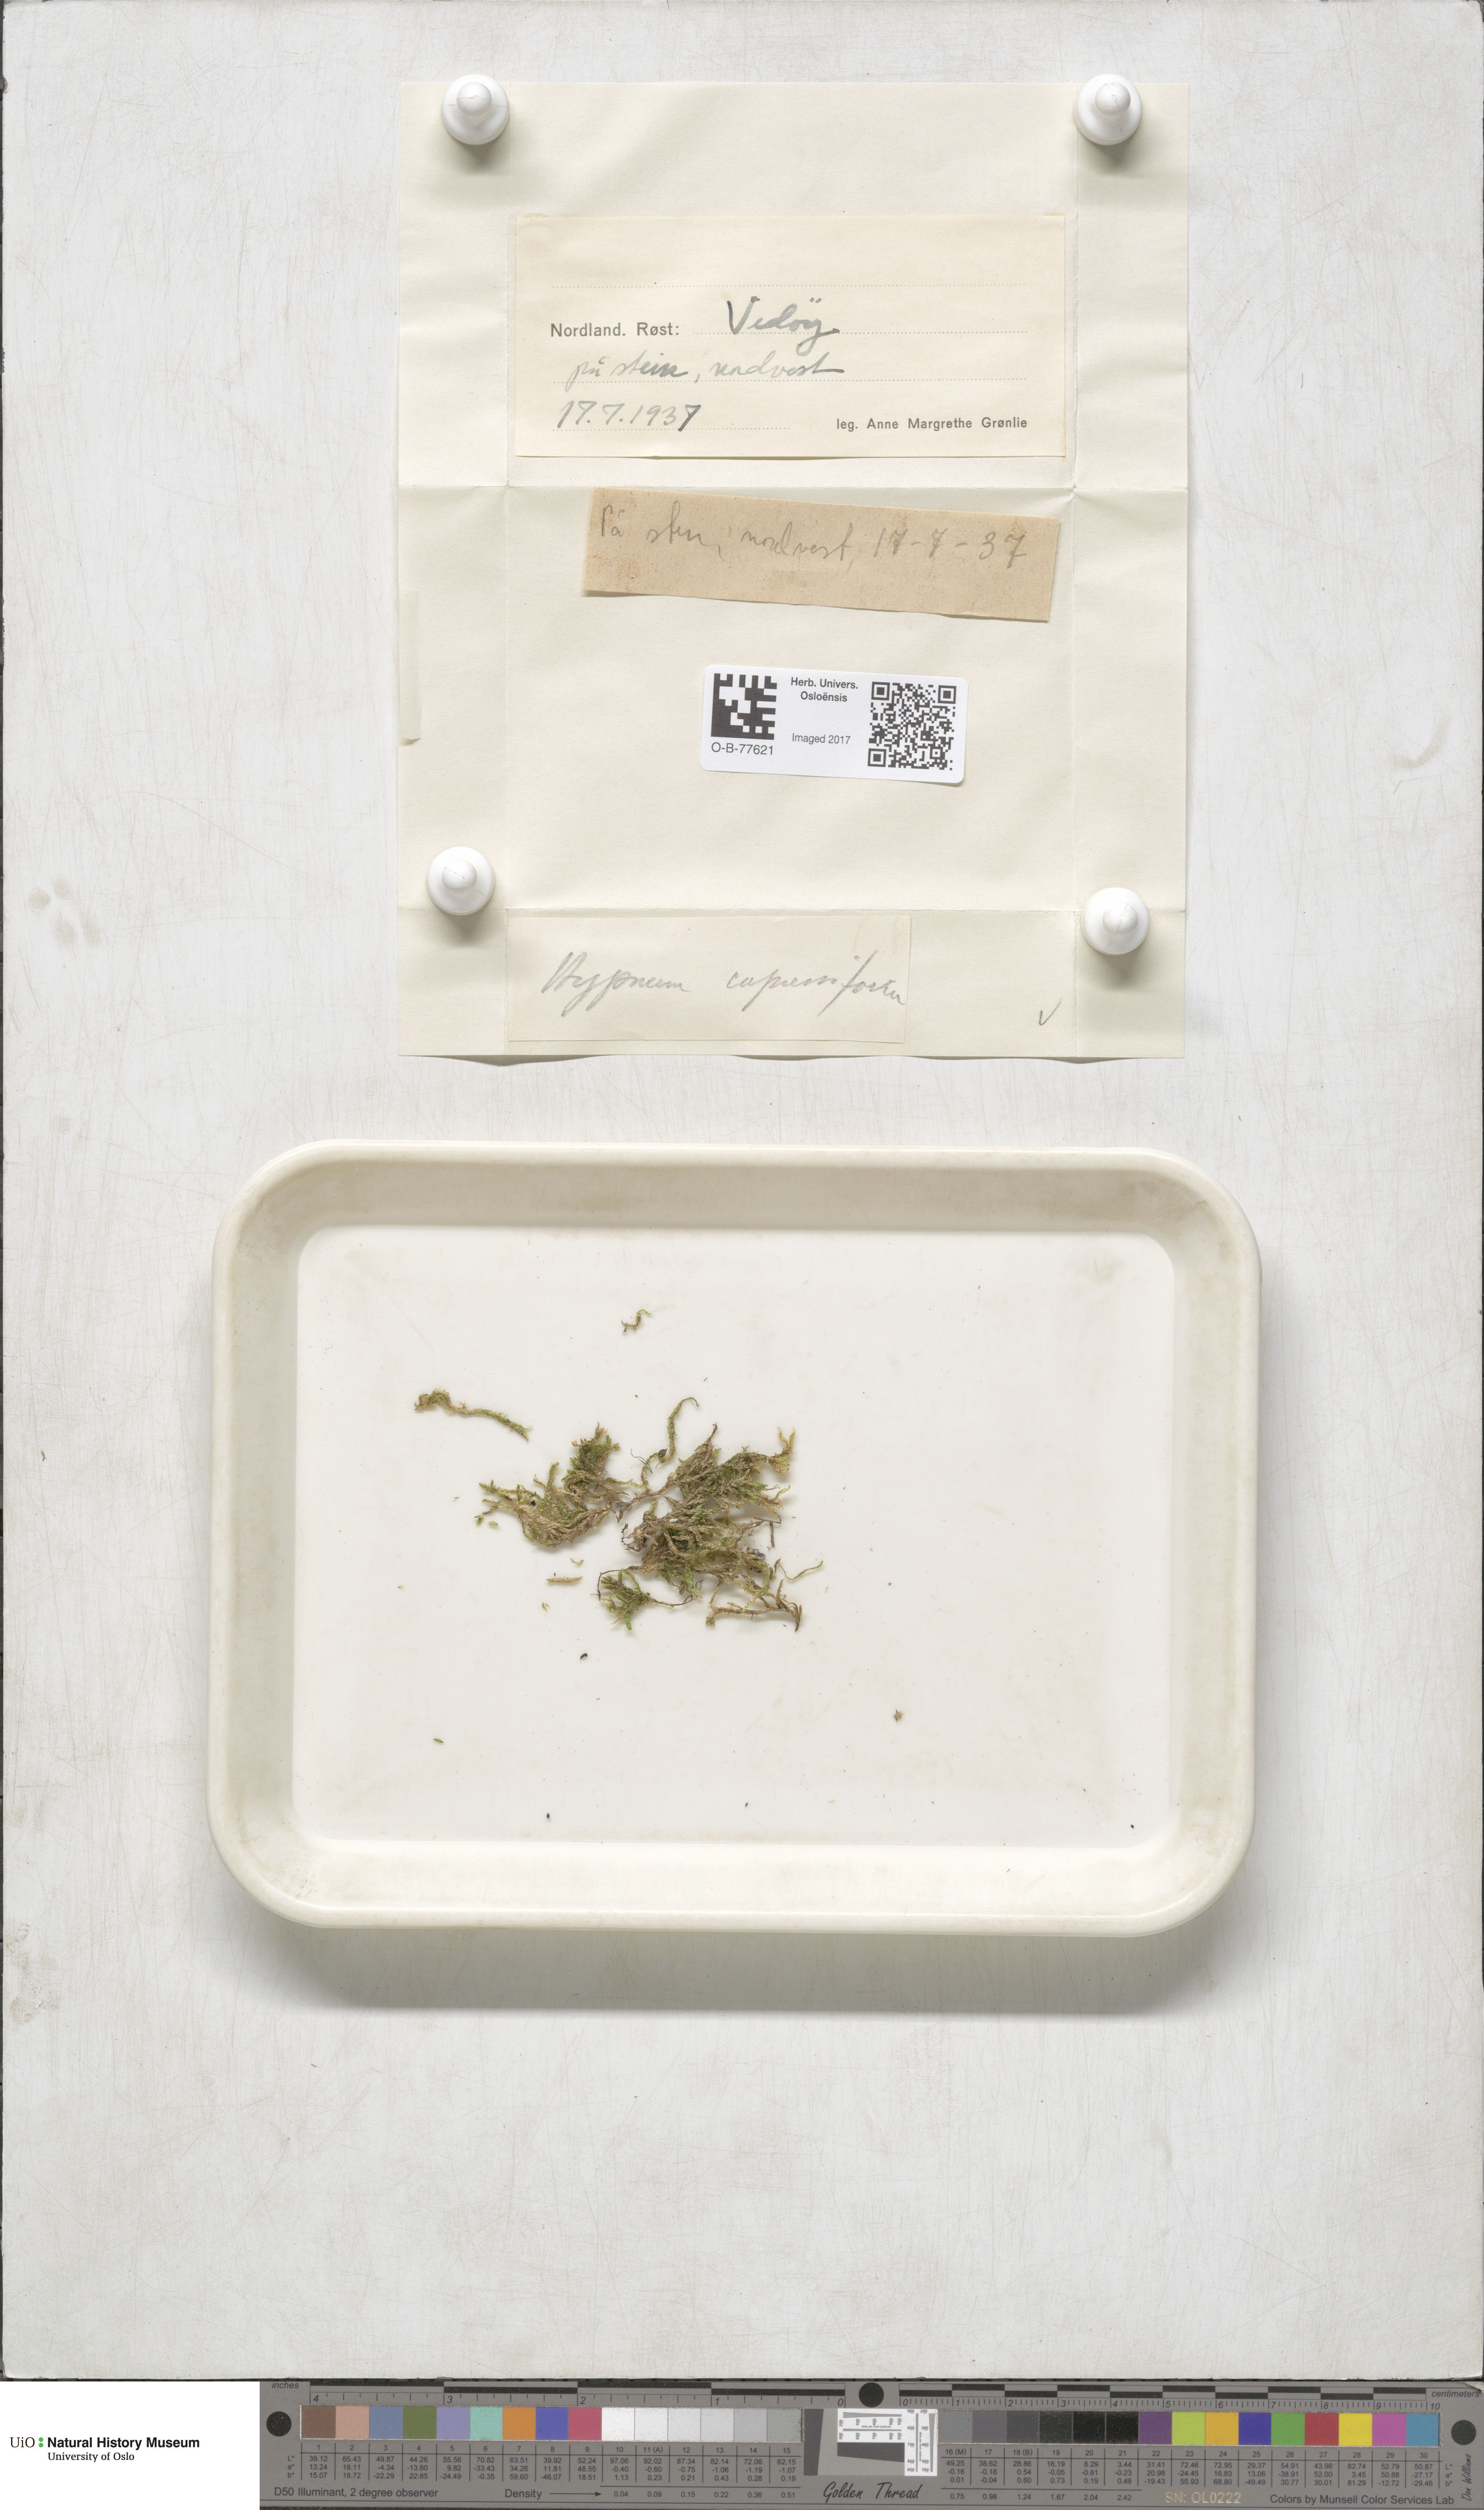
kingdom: Plantae
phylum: Bryophyta
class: Bryopsida
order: Hypnales
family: Hypnaceae
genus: Hypnum
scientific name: Hypnum cupressiforme
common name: Cypress-leaved plait-moss
